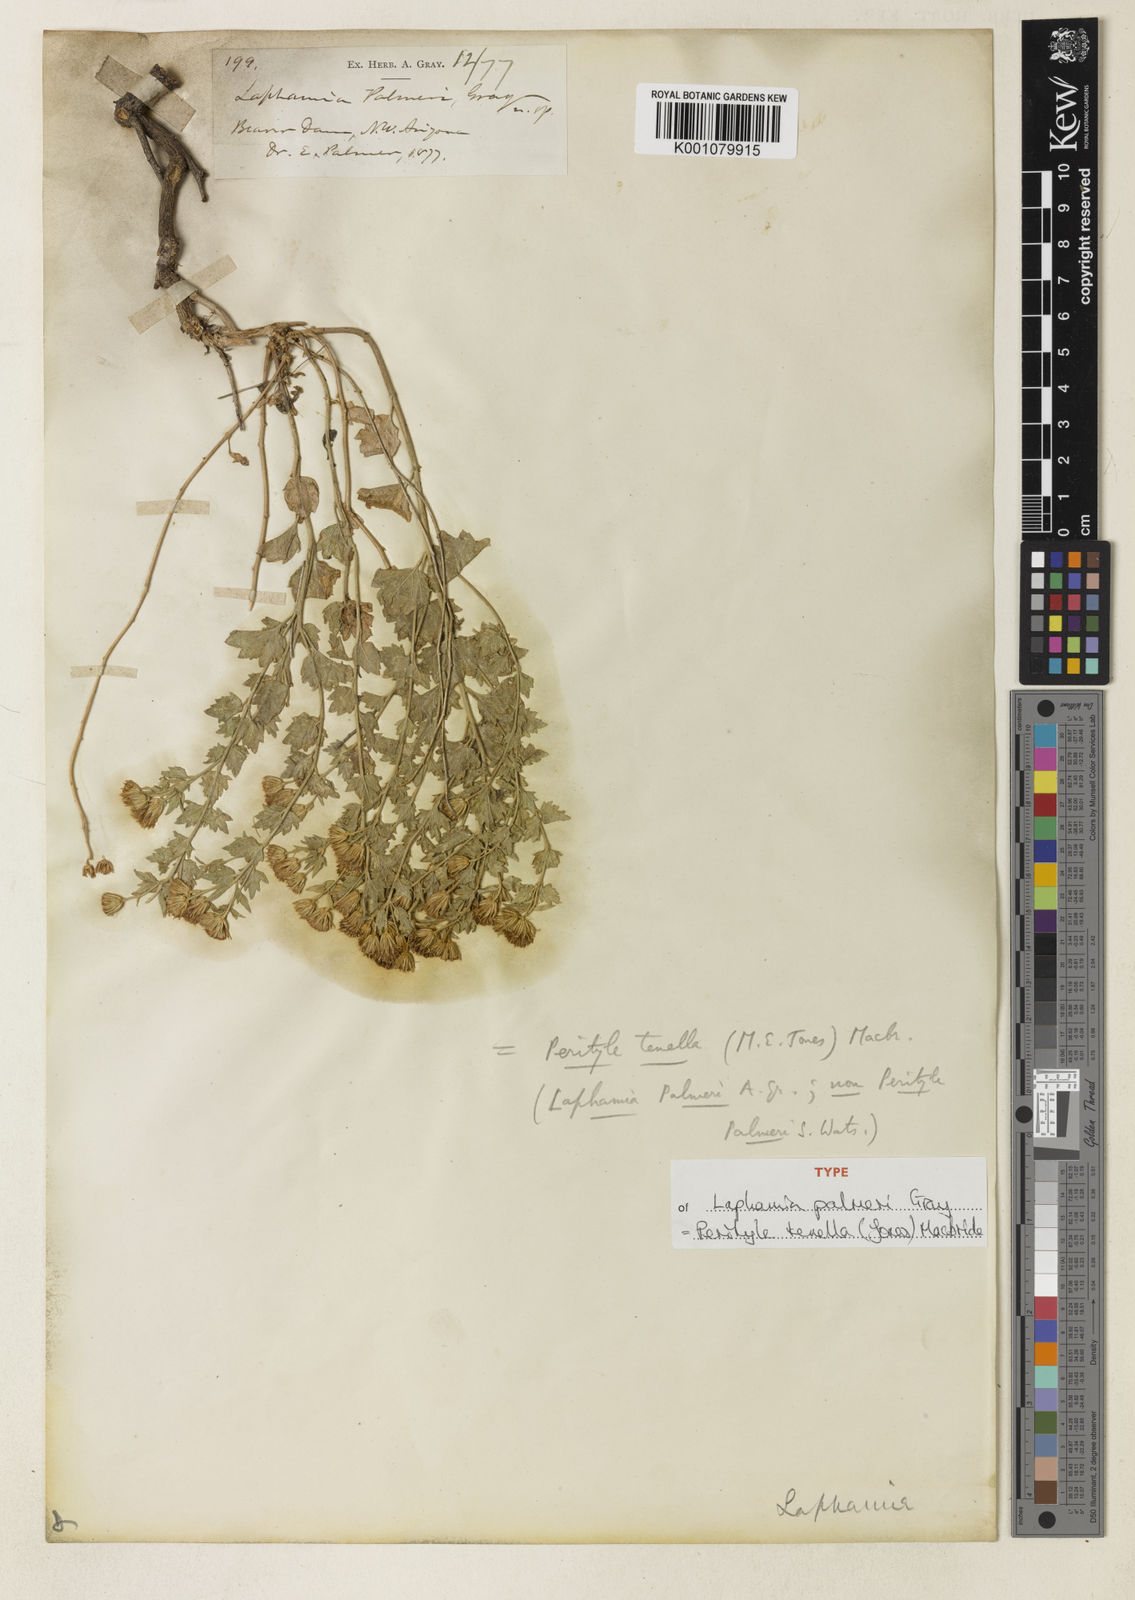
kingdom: Plantae
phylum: Tracheophyta
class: Magnoliopsida
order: Asterales
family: Asteraceae
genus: Laphamia
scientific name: Laphamia sanchezii
